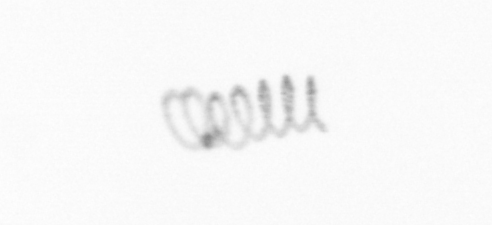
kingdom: Chromista
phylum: Ochrophyta
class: Bacillariophyceae
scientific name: Bacillariophyceae
